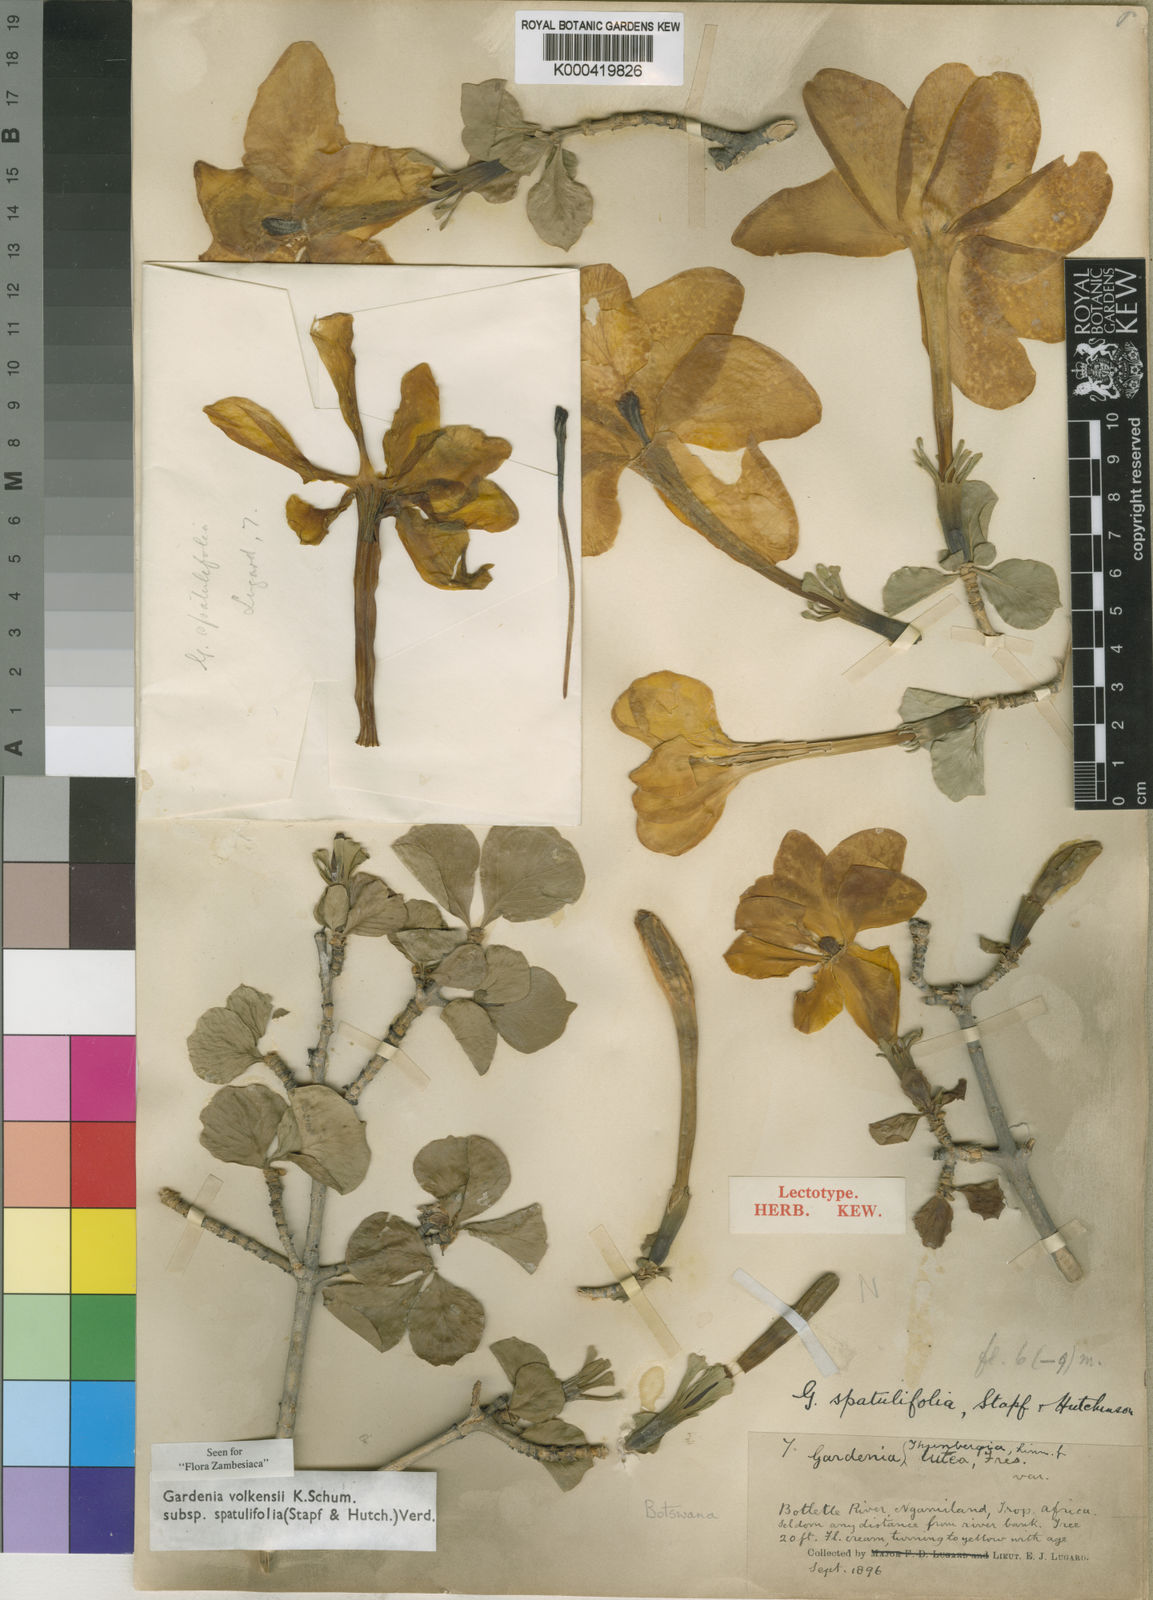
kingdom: Plantae
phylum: Tracheophyta
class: Magnoliopsida
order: Gentianales
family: Rubiaceae
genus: Gardenia
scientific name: Gardenia volkensii
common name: Common gardenia
